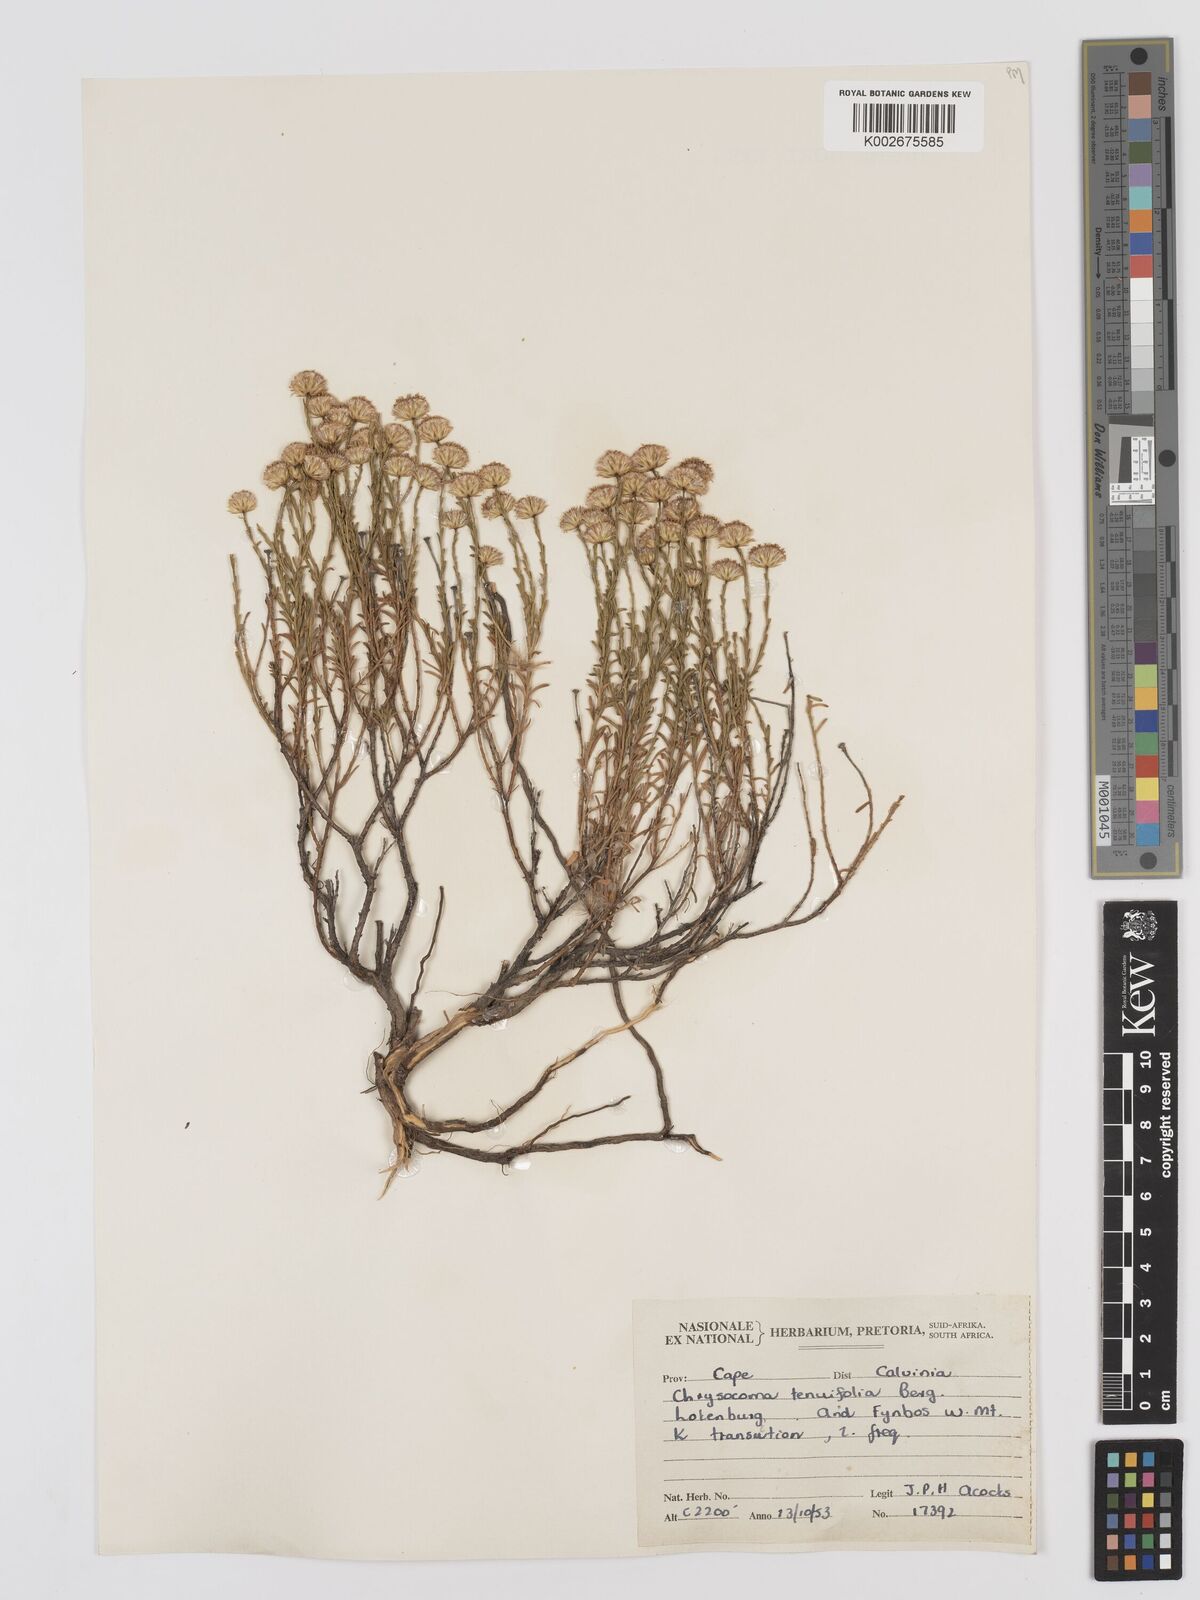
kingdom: Plantae
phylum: Tracheophyta
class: Magnoliopsida
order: Asterales
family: Asteraceae
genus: Chrysocoma
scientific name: Chrysocoma ciliata
